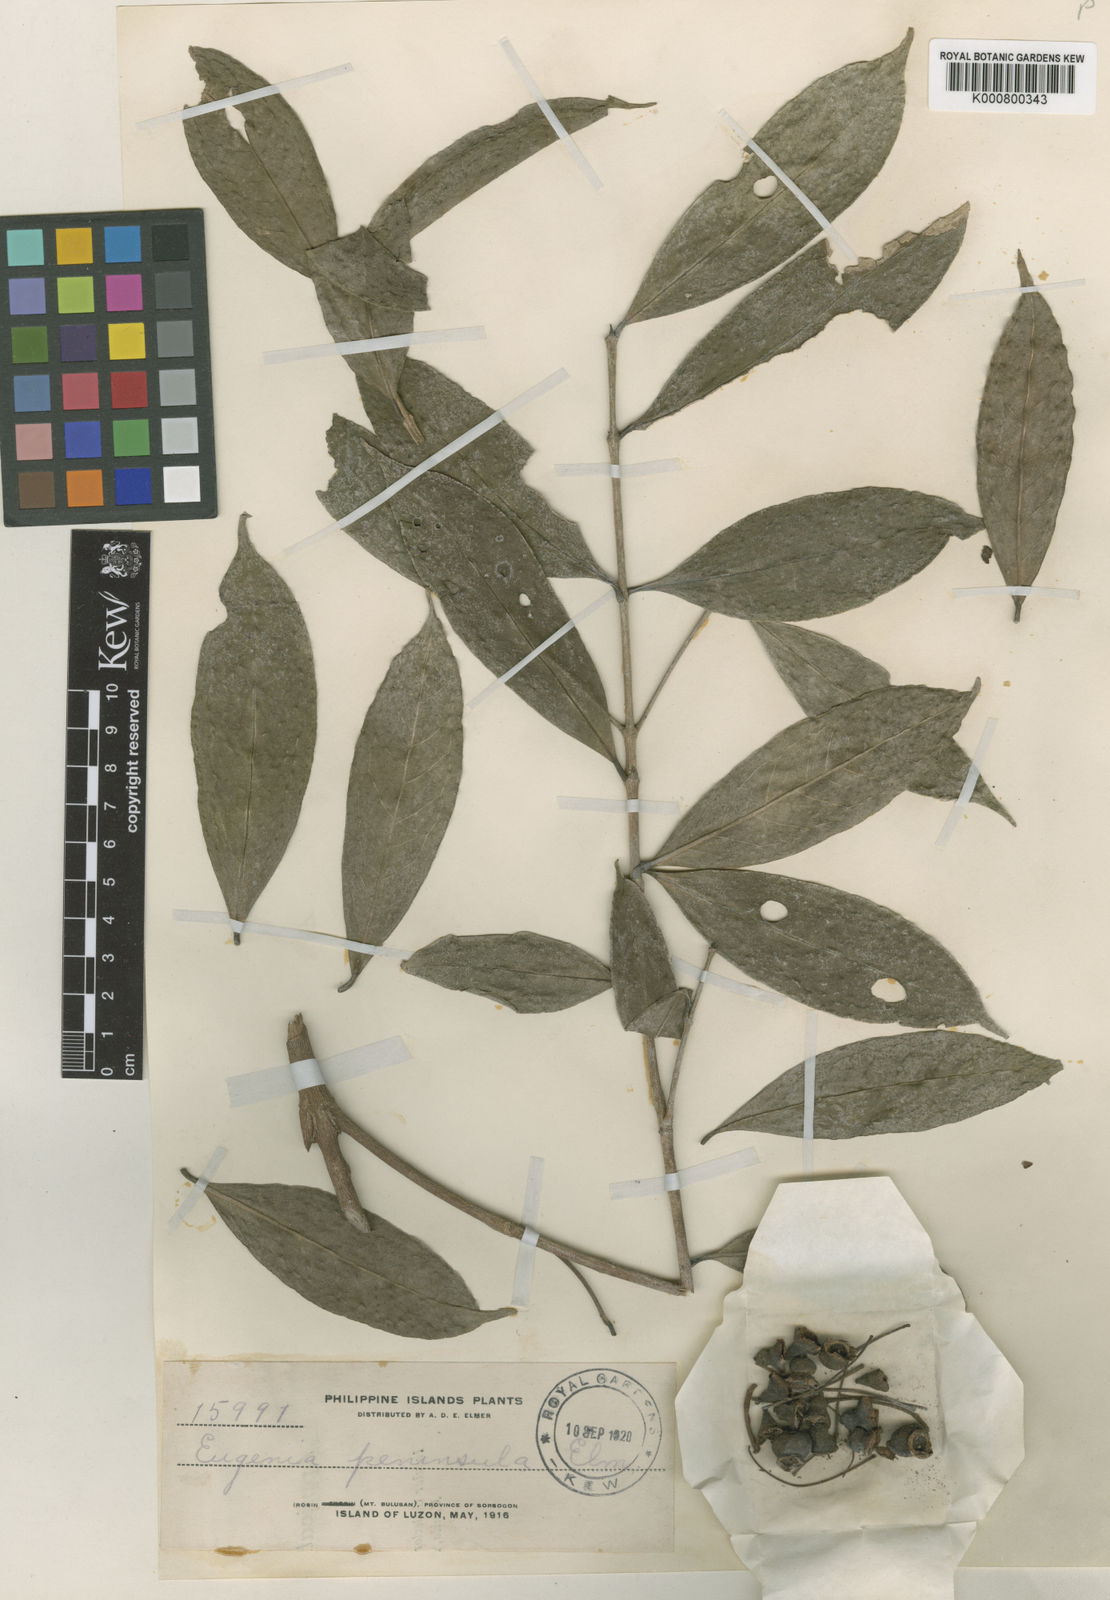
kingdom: Plantae
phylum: Tracheophyta
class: Magnoliopsida
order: Myrtales
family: Myrtaceae
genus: Syzygium
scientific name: Syzygium tripinnatum
